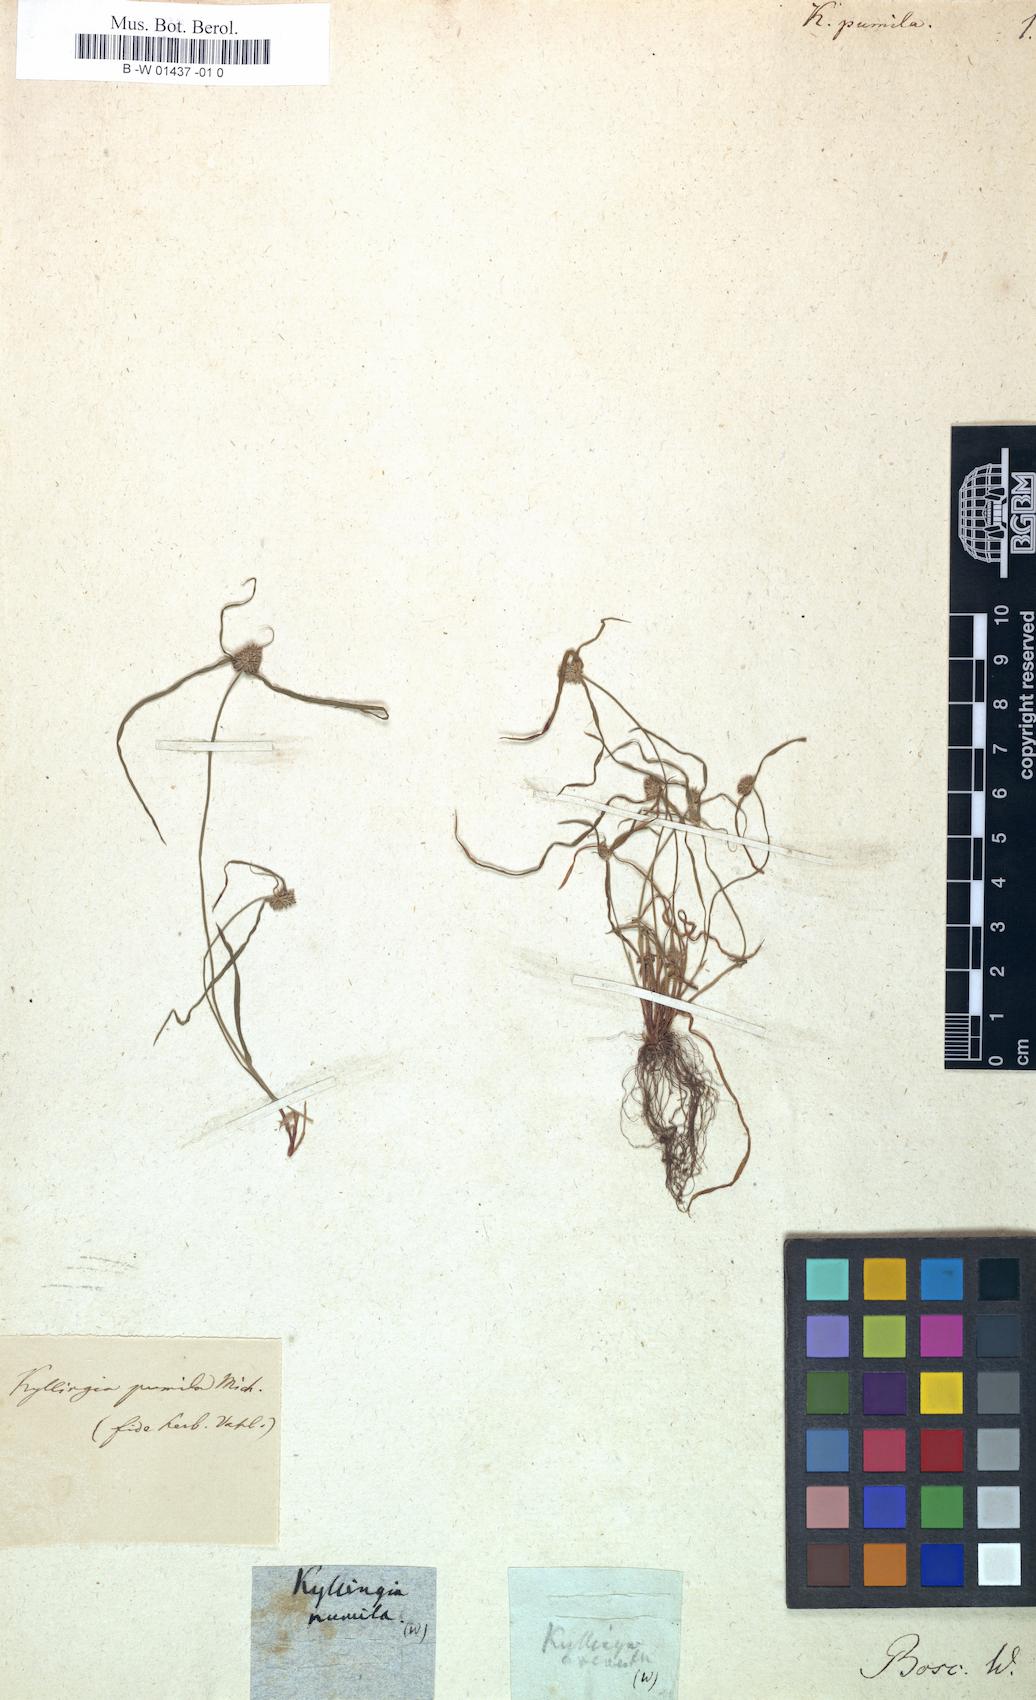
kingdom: Plantae
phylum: Tracheophyta
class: Liliopsida
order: Poales
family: Cyperaceae
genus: Cyperus
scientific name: Cyperus
